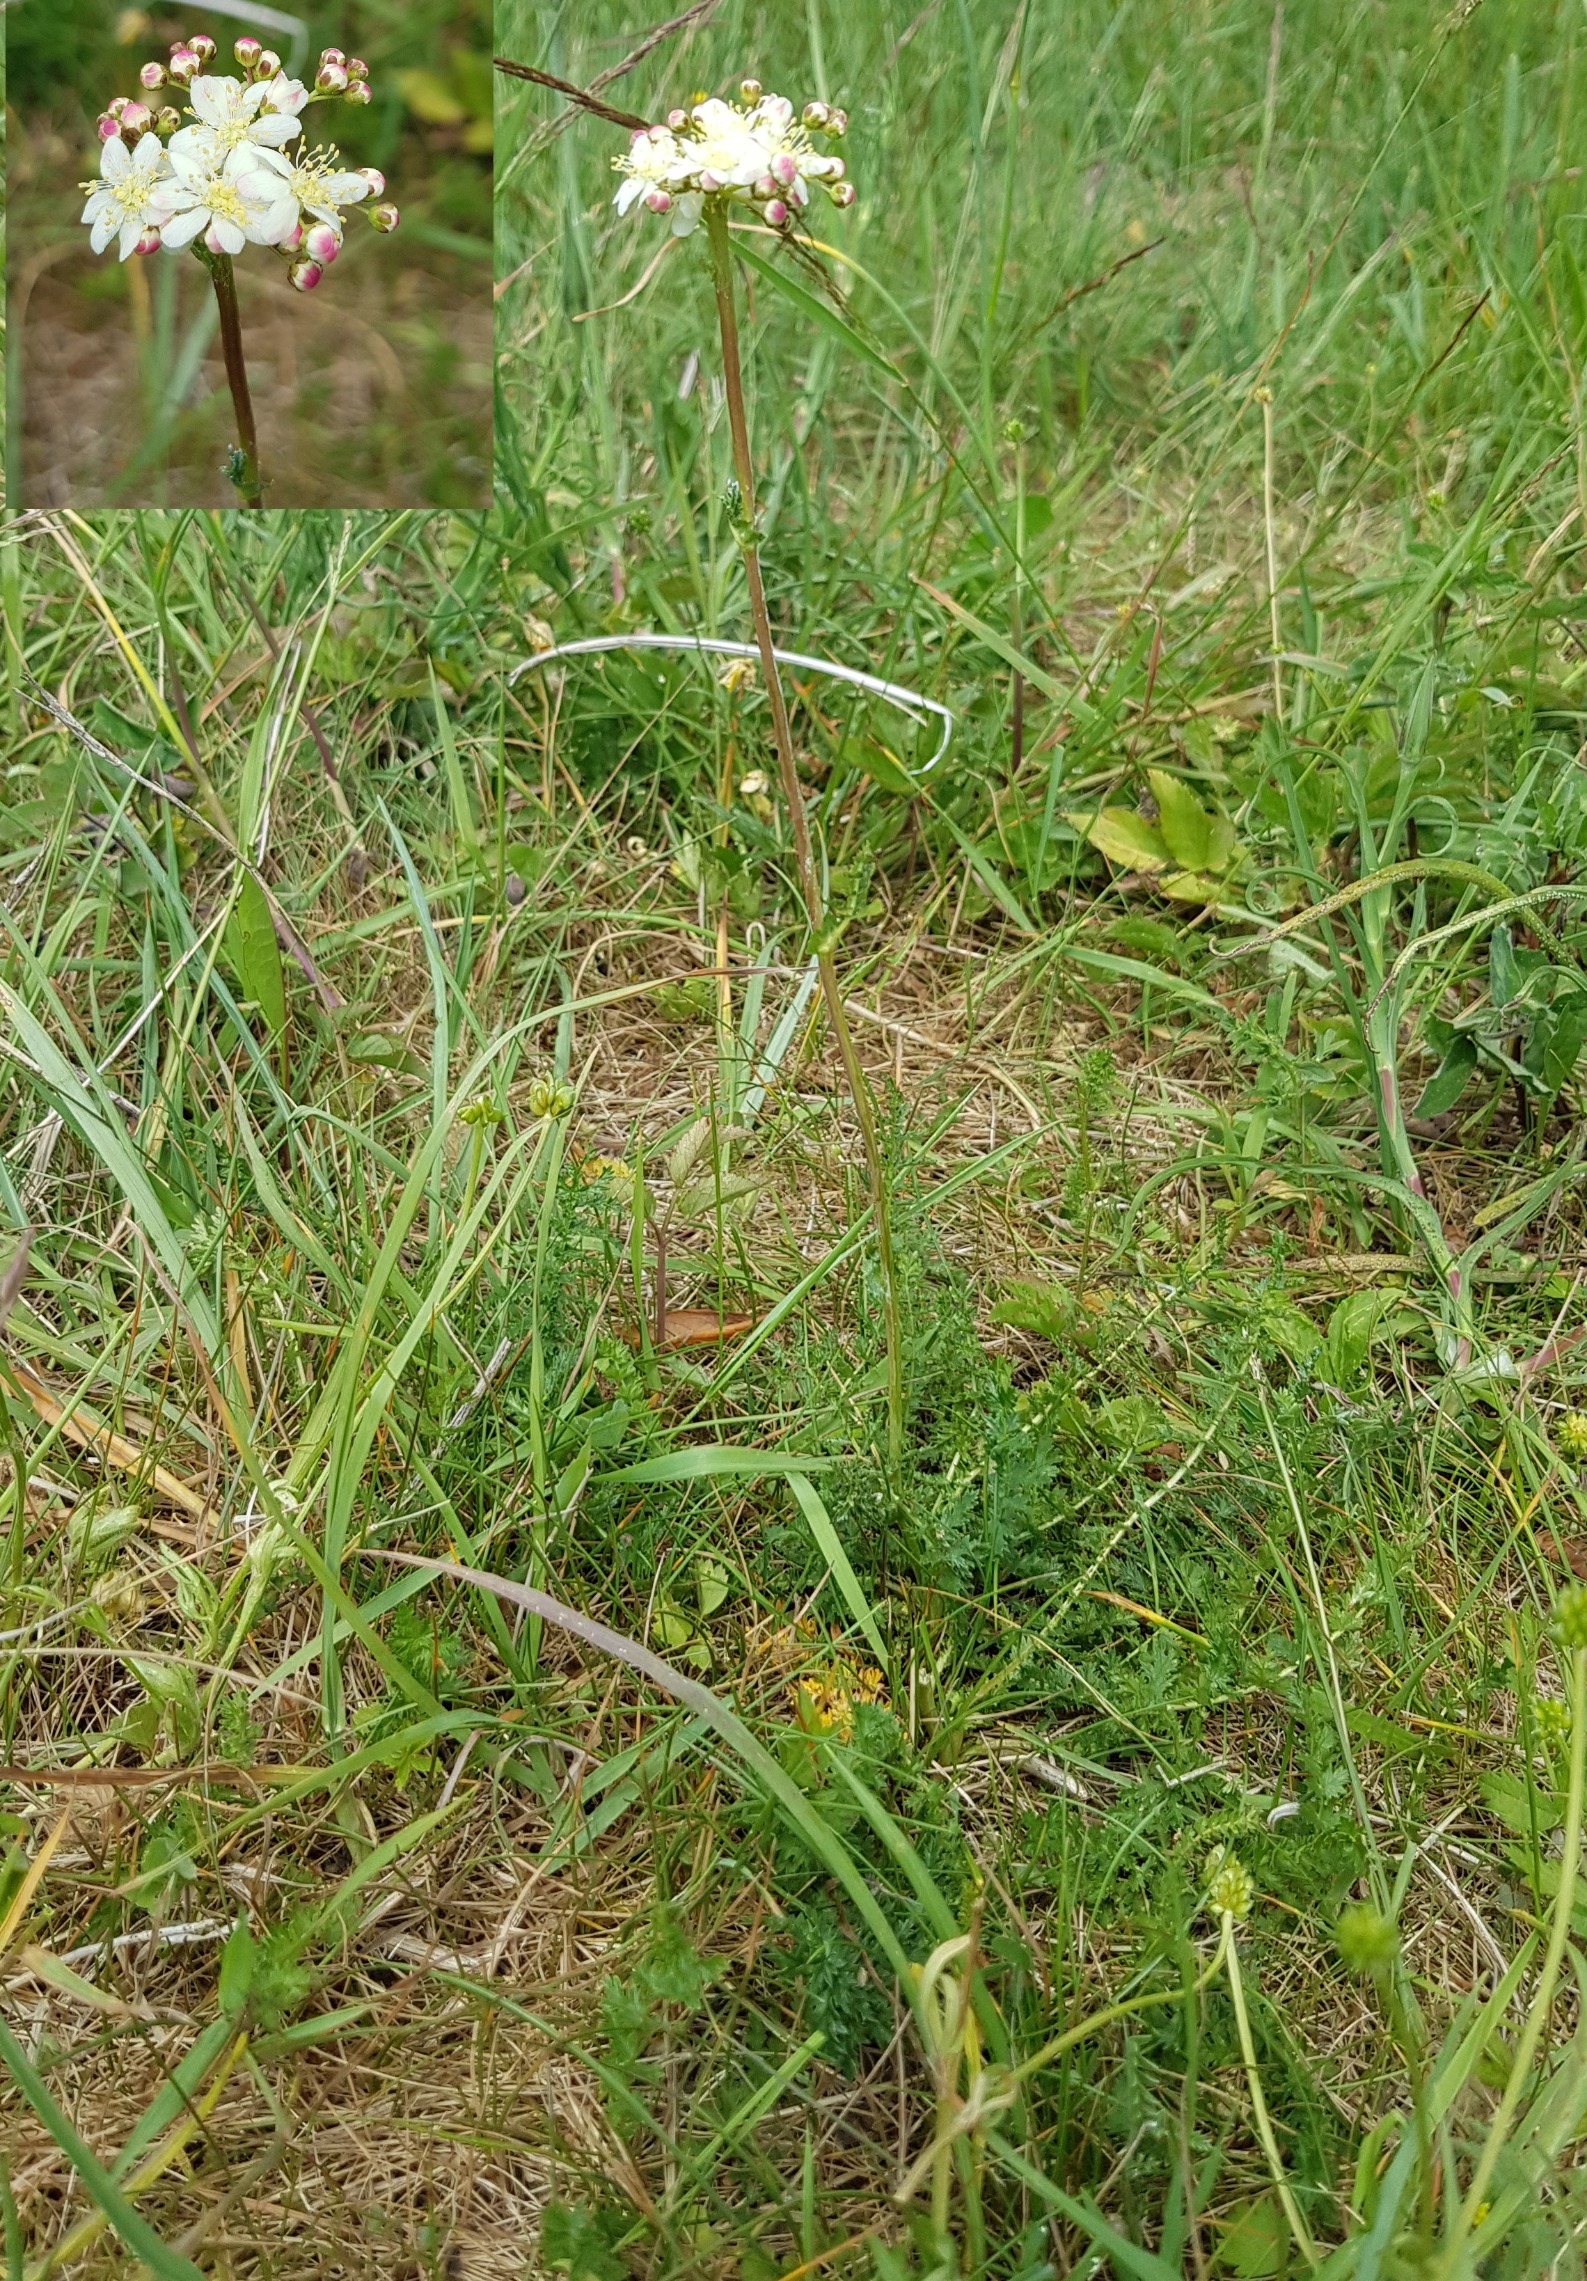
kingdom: Plantae
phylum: Tracheophyta
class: Magnoliopsida
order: Rosales
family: Rosaceae
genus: Filipendula
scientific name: Filipendula vulgaris
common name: Knoldet mjødurt
